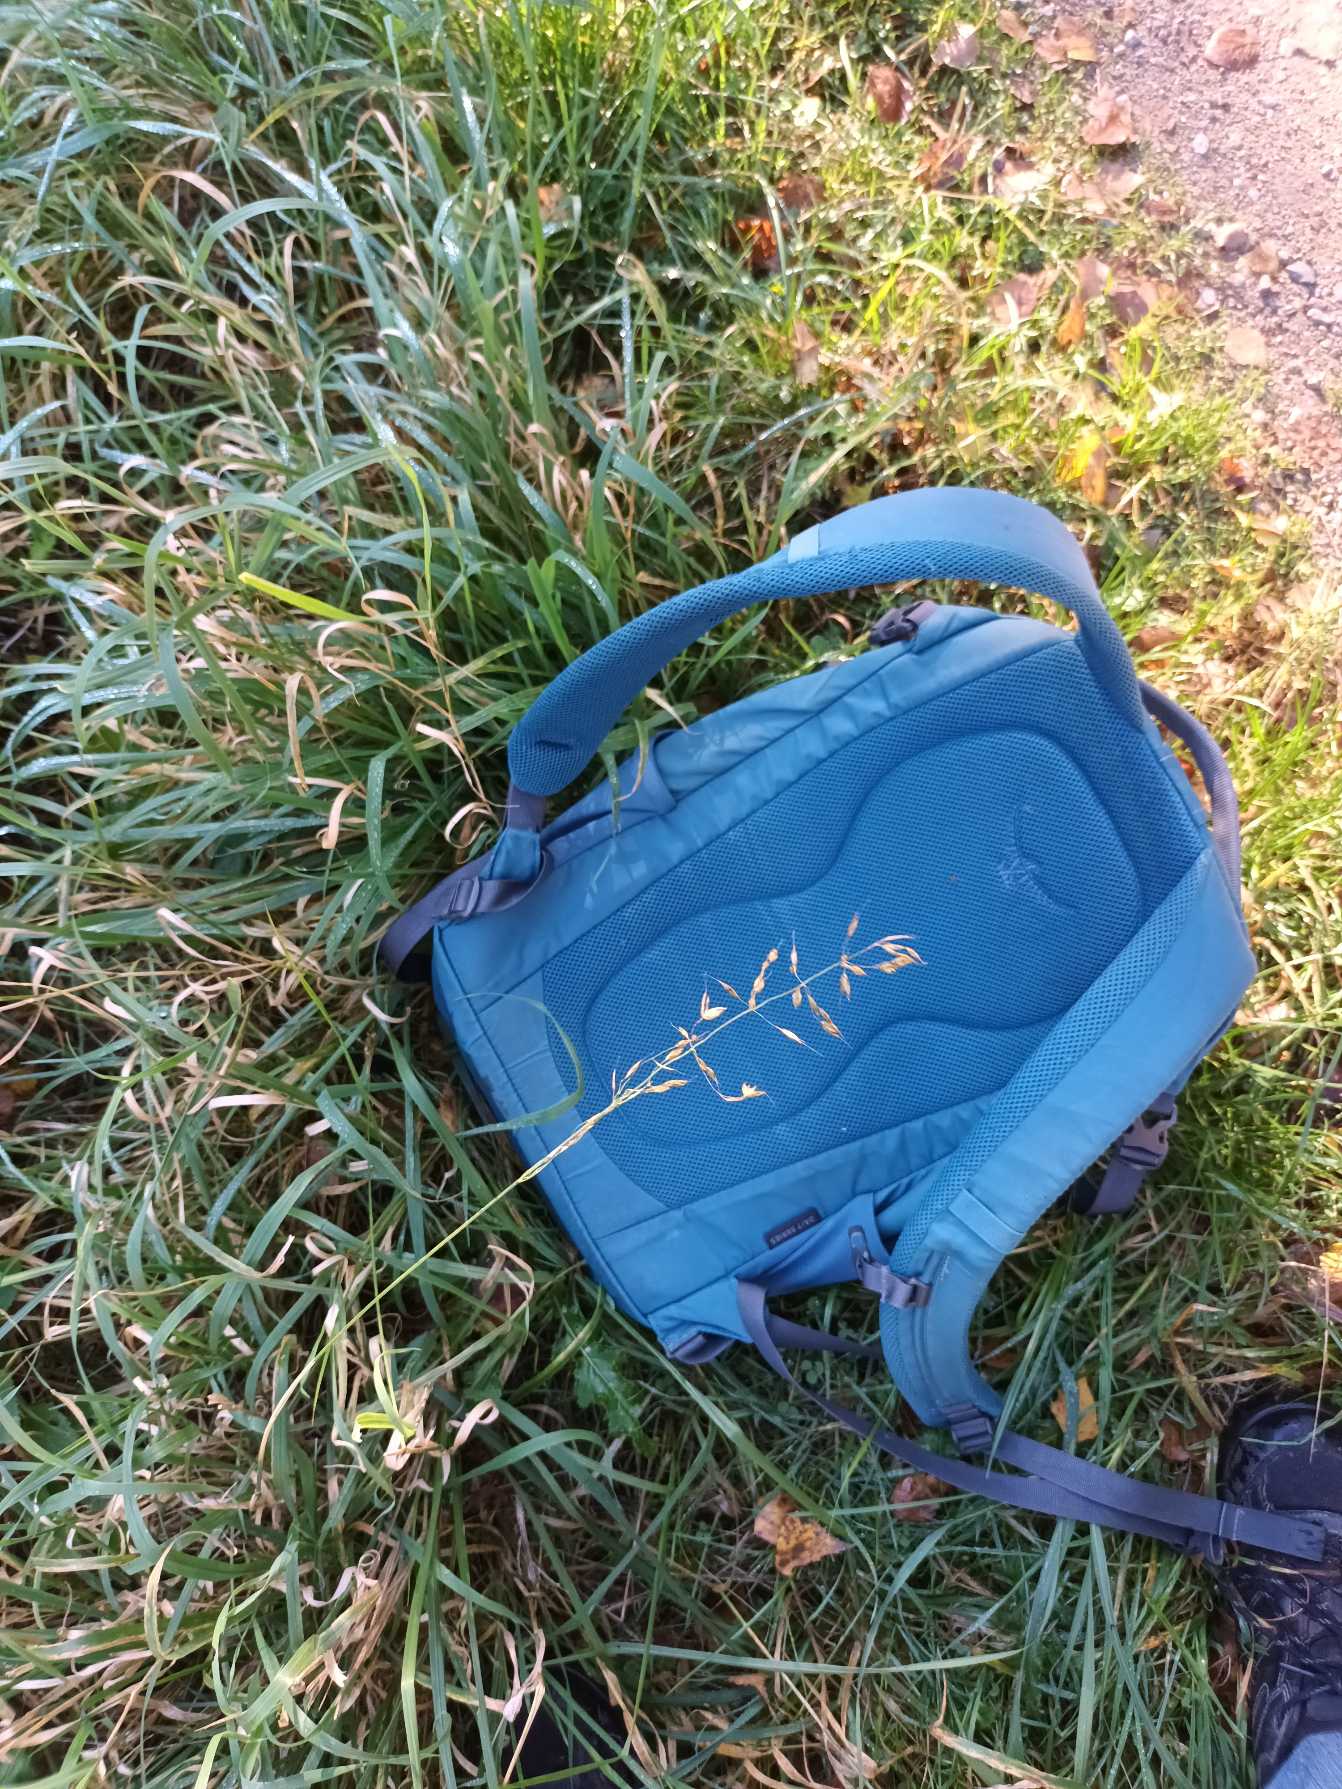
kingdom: Plantae
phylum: Tracheophyta
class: Liliopsida
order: Poales
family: Poaceae
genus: Arrhenatherum
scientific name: Arrhenatherum elatius
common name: Draphavre
